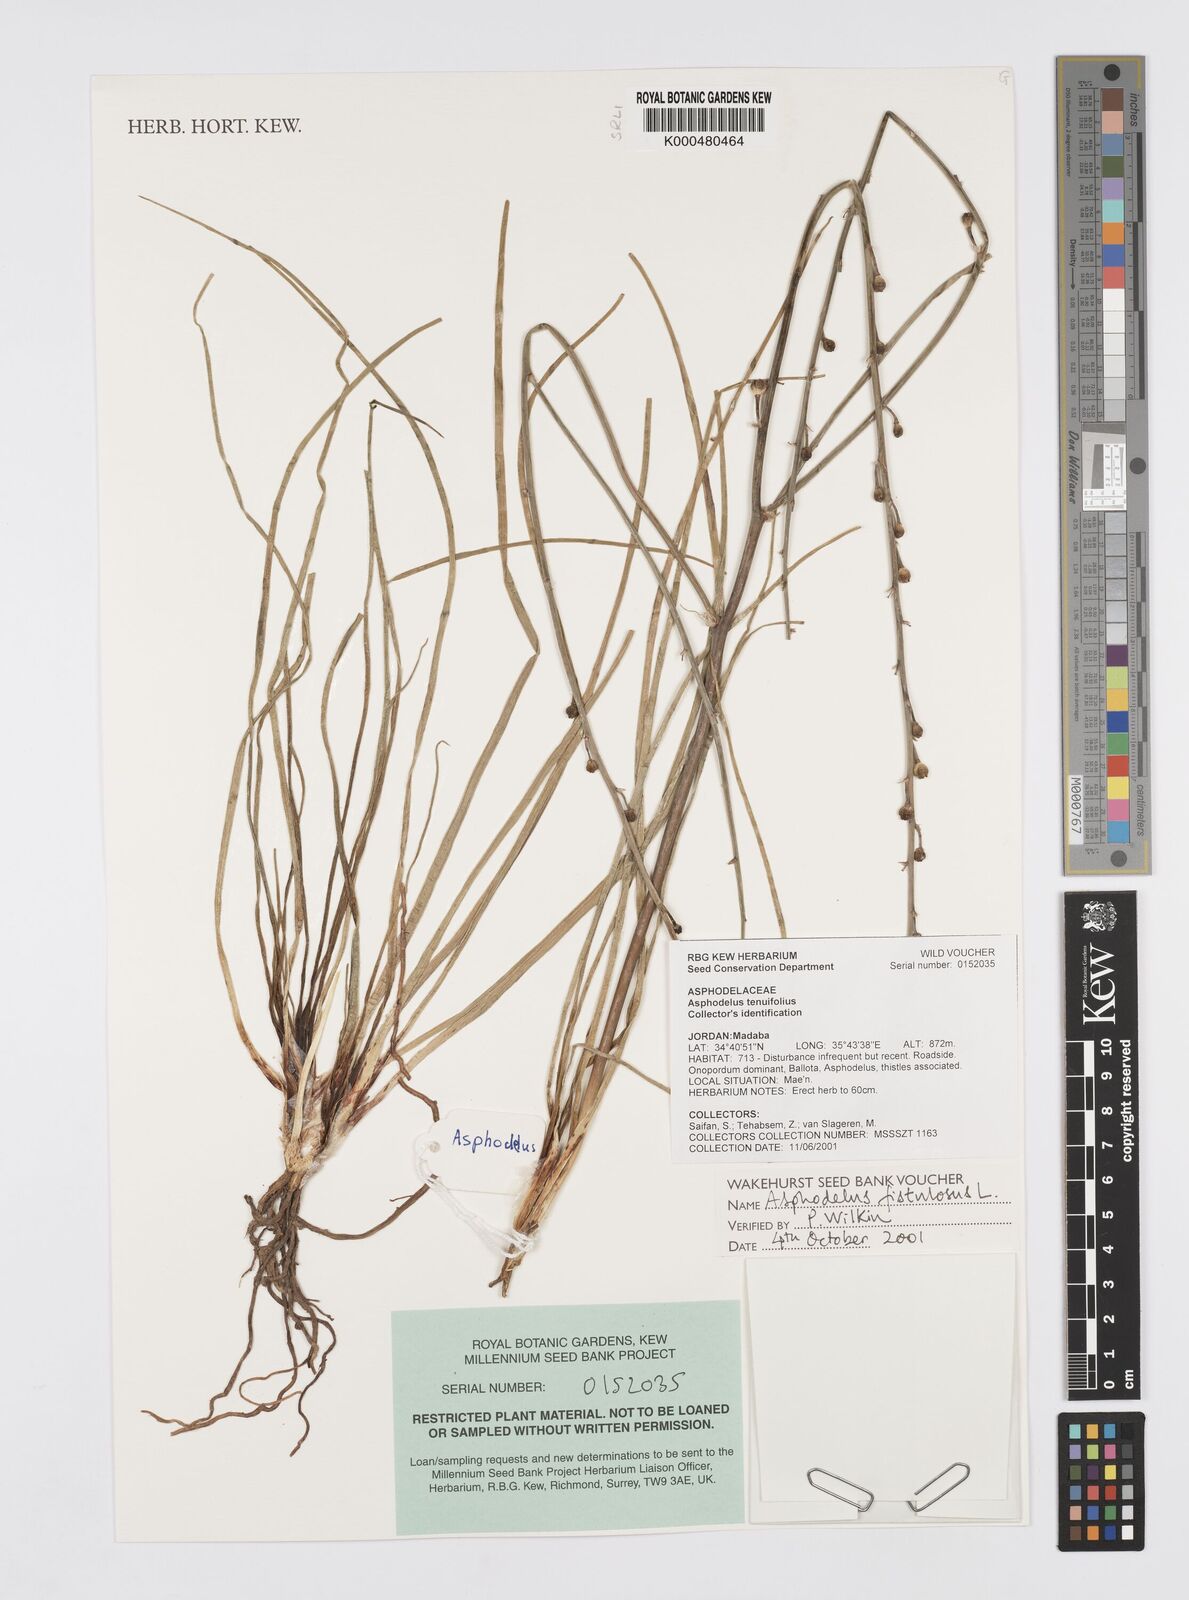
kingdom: Plantae
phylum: Tracheophyta
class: Liliopsida
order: Asparagales
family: Asphodelaceae
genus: Asphodelus
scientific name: Asphodelus fistulosus
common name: Onionweed
